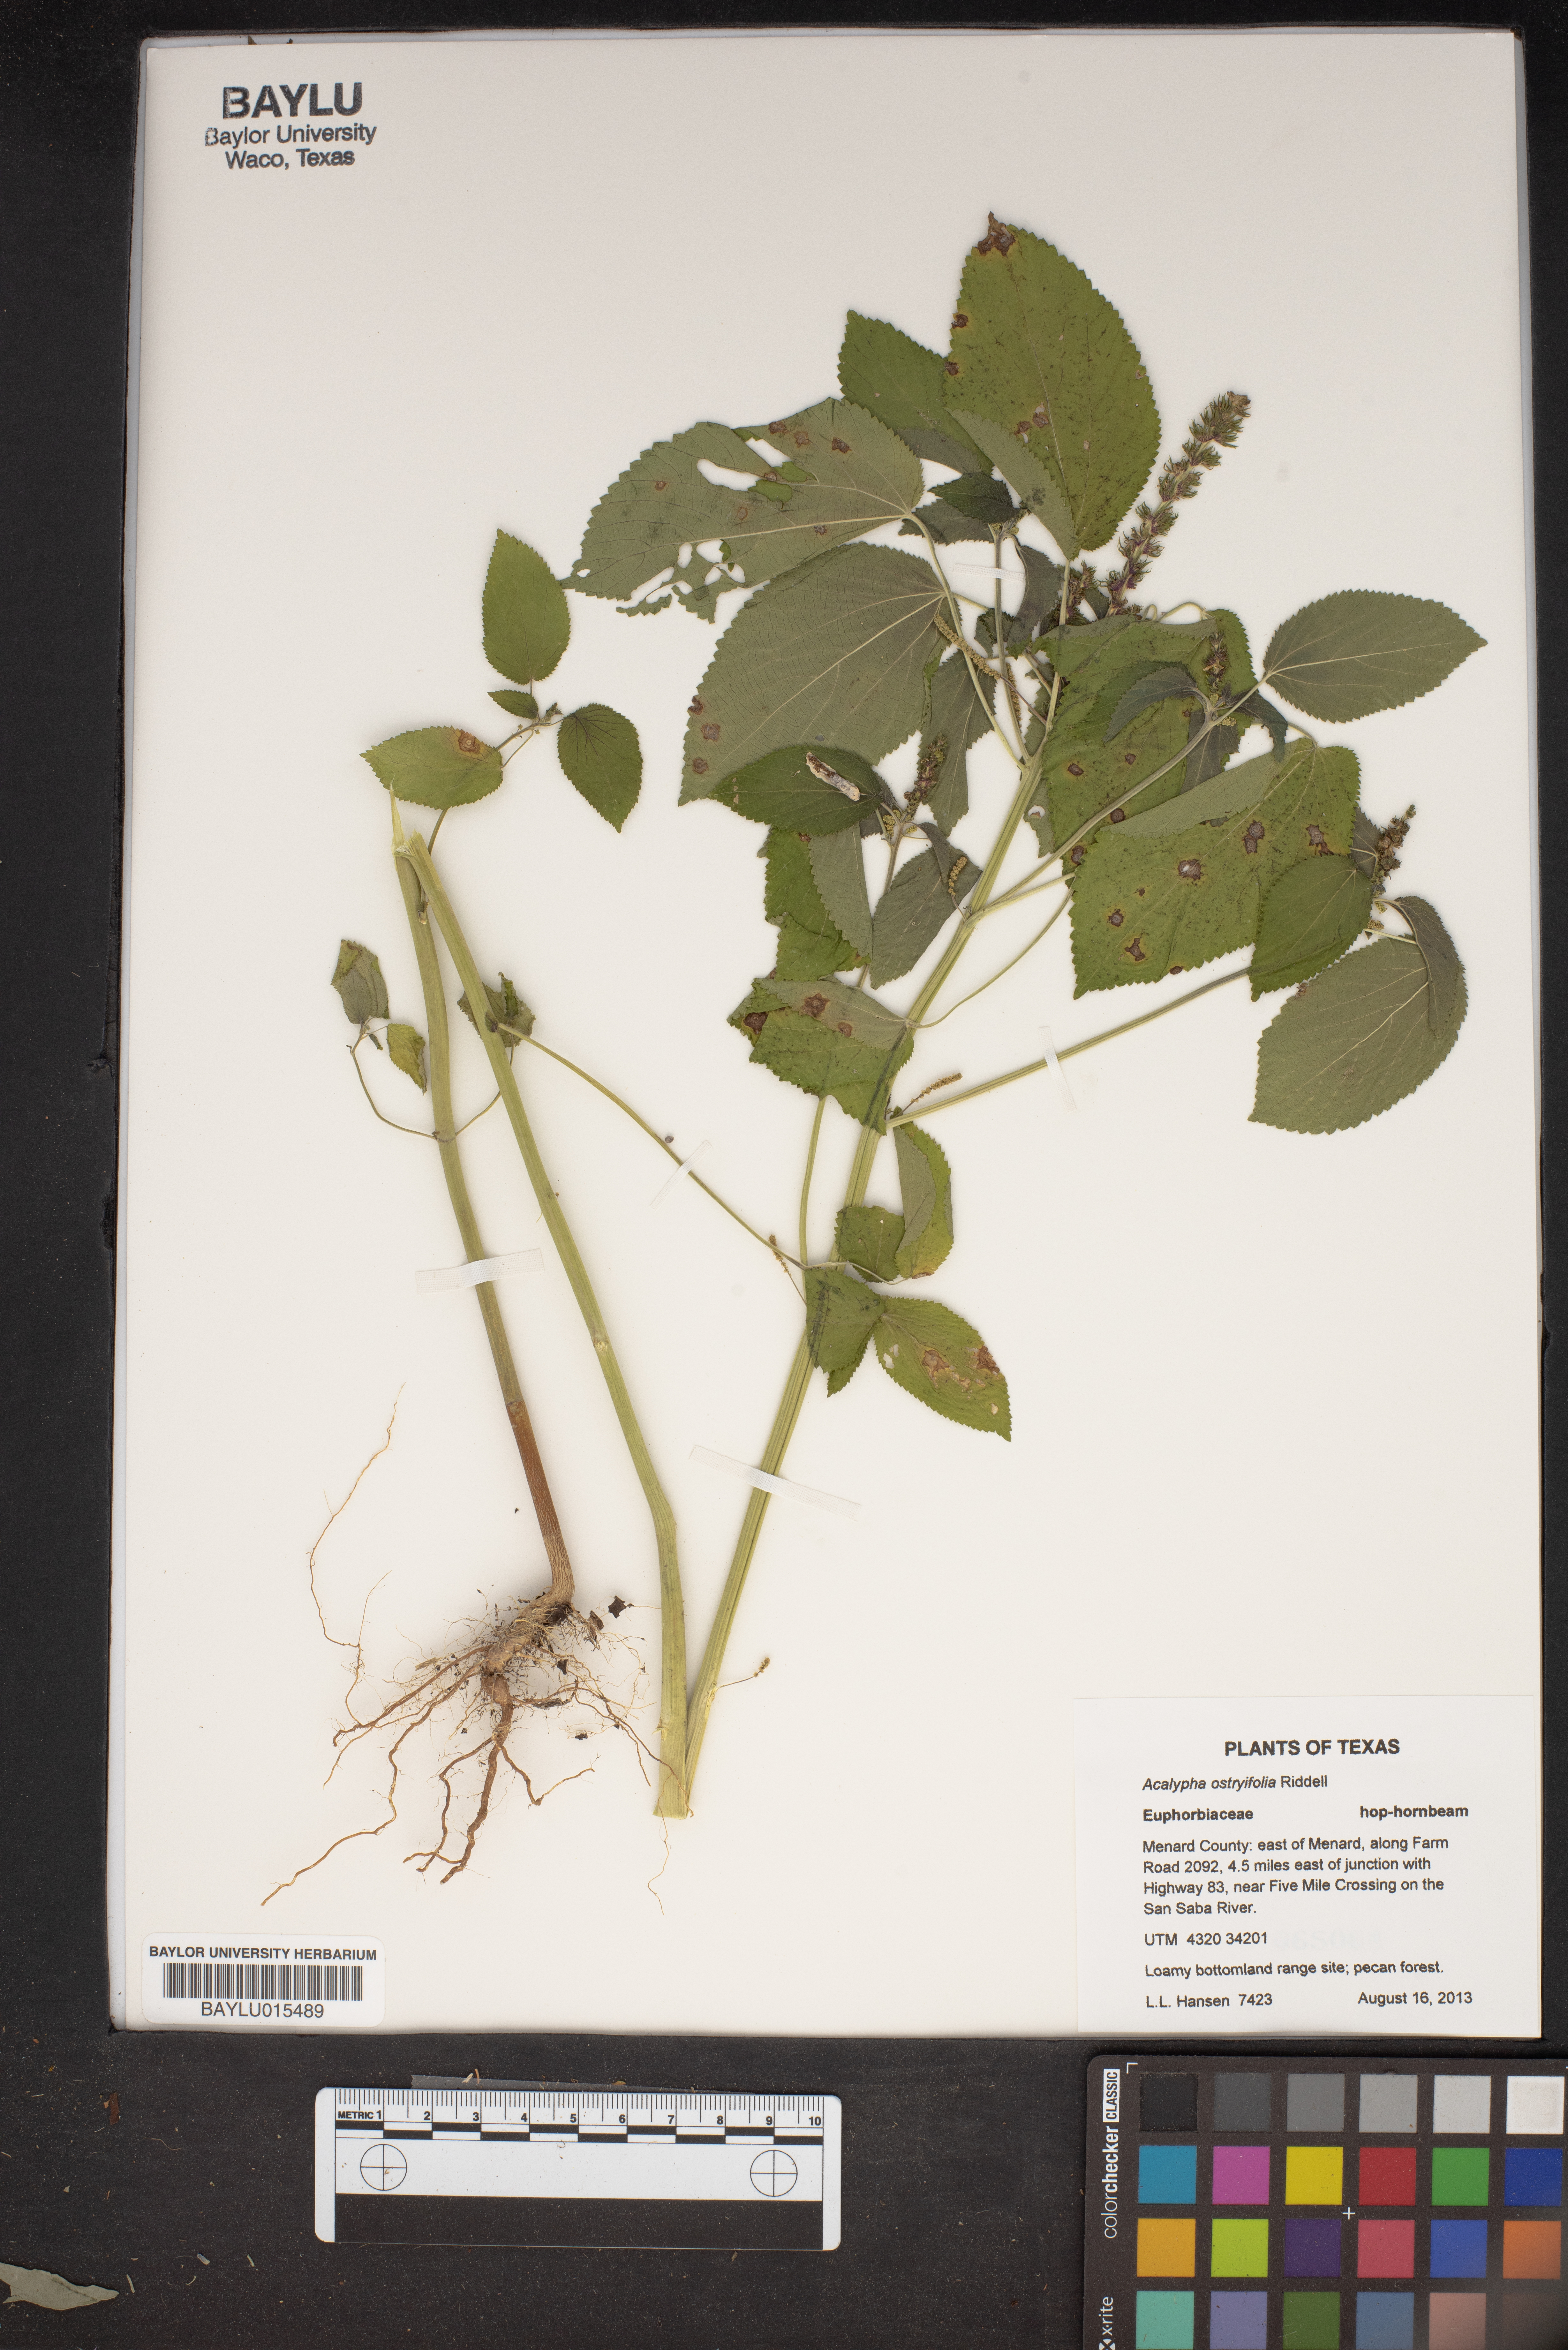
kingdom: Plantae
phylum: Tracheophyta
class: Magnoliopsida
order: Malpighiales
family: Euphorbiaceae
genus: Acalypha
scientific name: Acalypha persimilis
